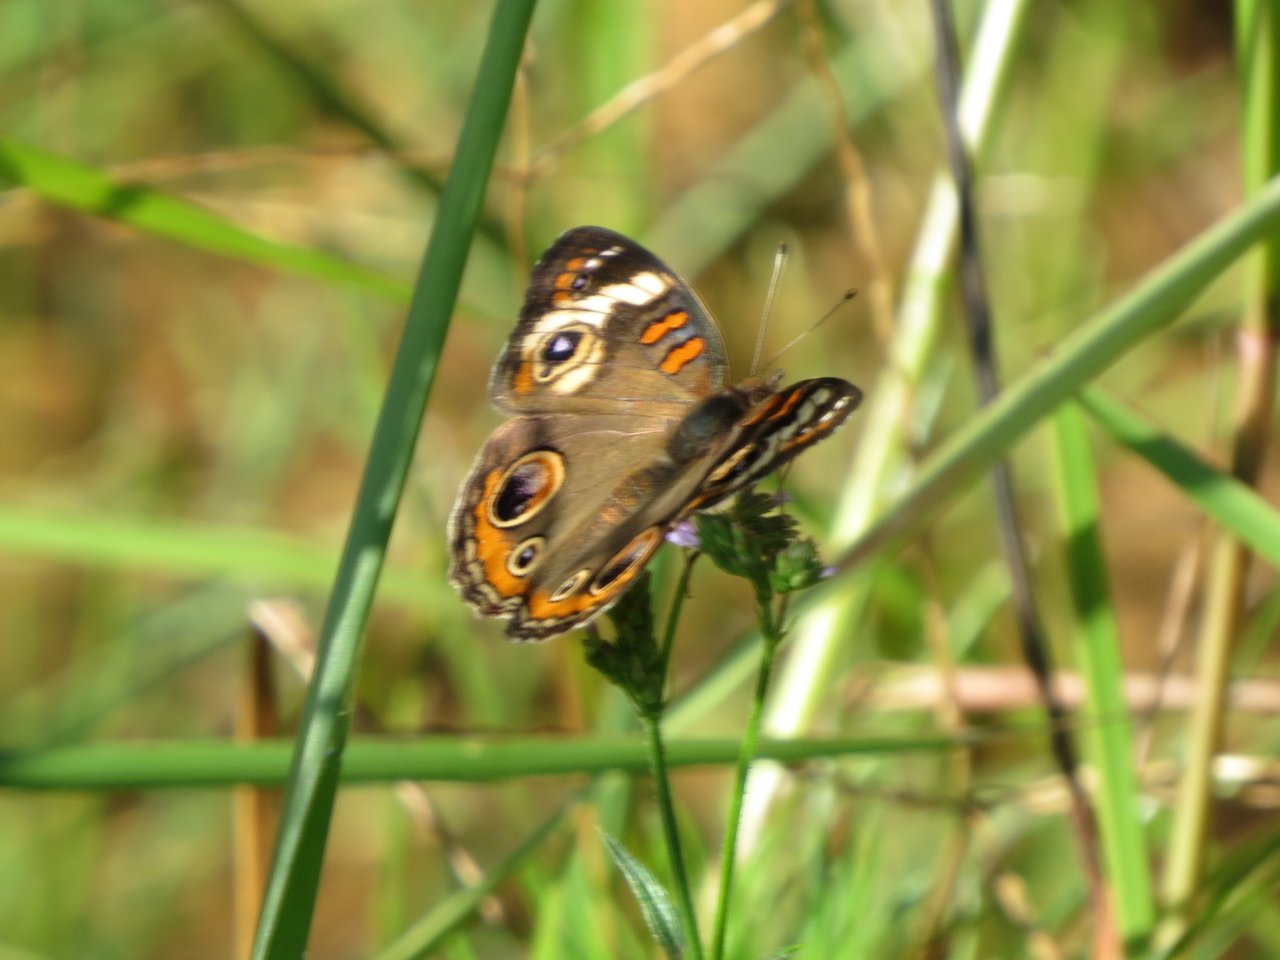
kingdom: Animalia
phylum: Arthropoda
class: Insecta
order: Lepidoptera
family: Nymphalidae
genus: Junonia
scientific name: Junonia coenia
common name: Common Buckeye
